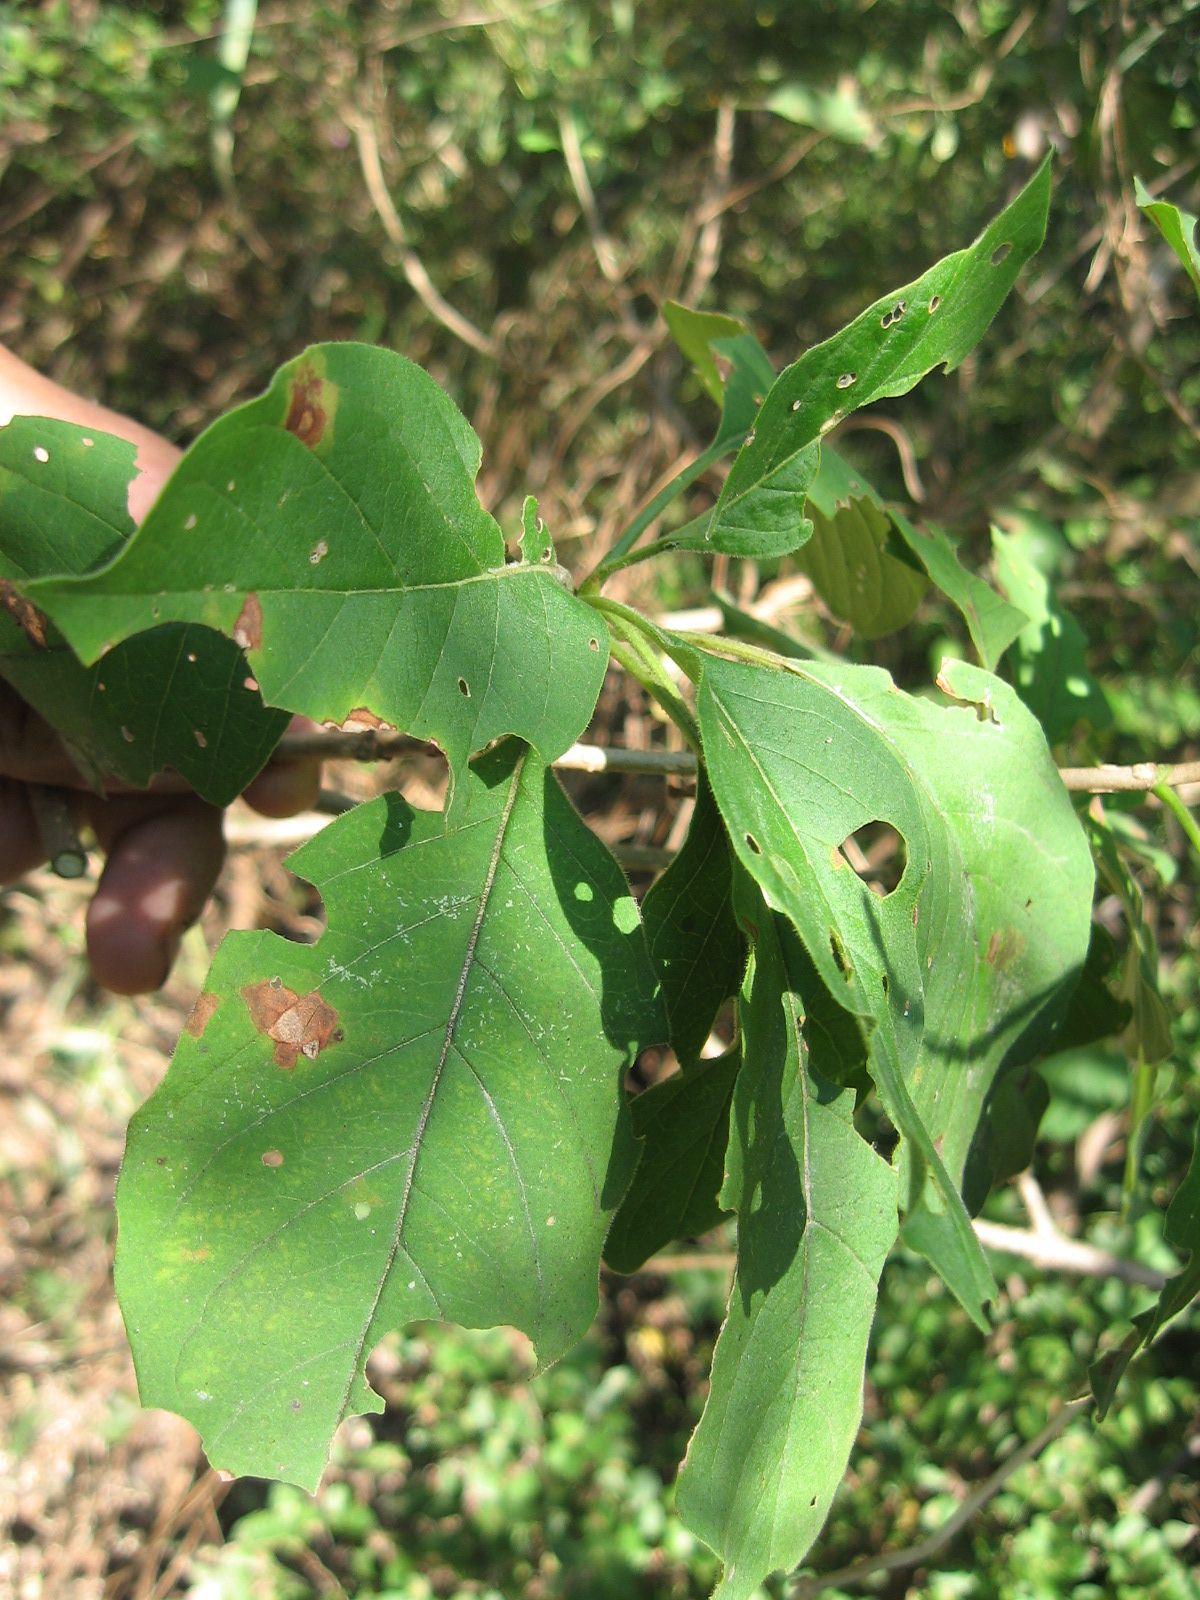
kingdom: Plantae
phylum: Tracheophyta
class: Magnoliopsida
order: Gentianales
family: Rubiaceae
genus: Hintonia
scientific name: Hintonia latiflora
